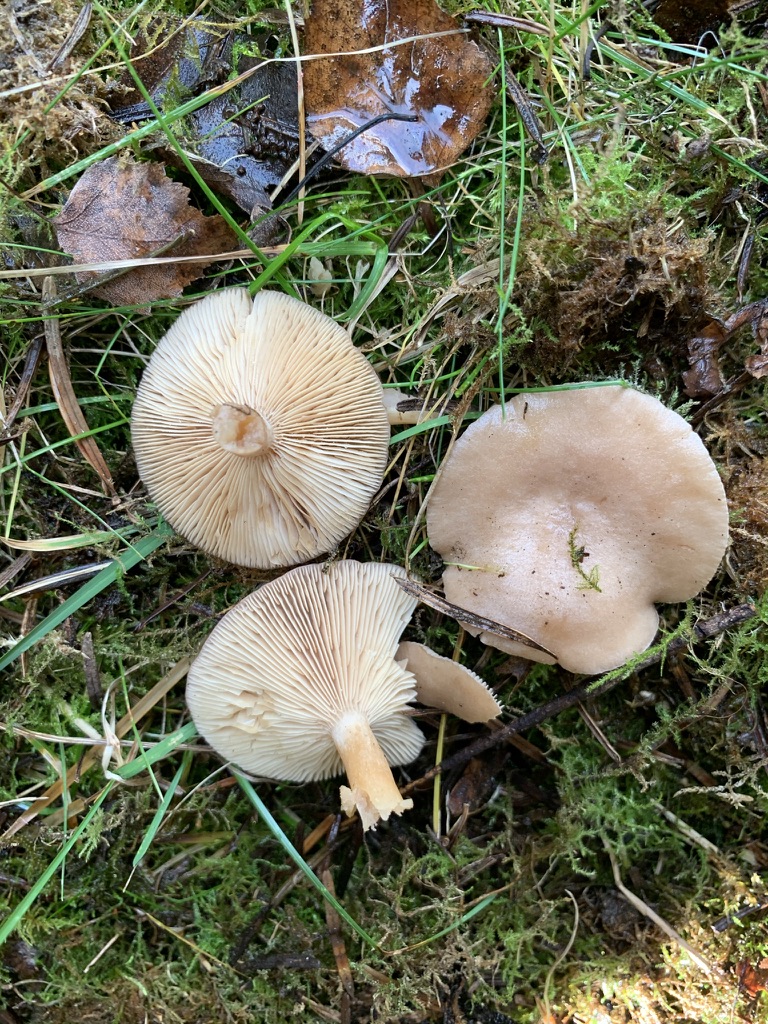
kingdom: Fungi
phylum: Basidiomycota
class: Agaricomycetes
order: Russulales
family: Russulaceae
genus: Lactarius
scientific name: Lactarius glyciosmus
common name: kokos-mælkehat
